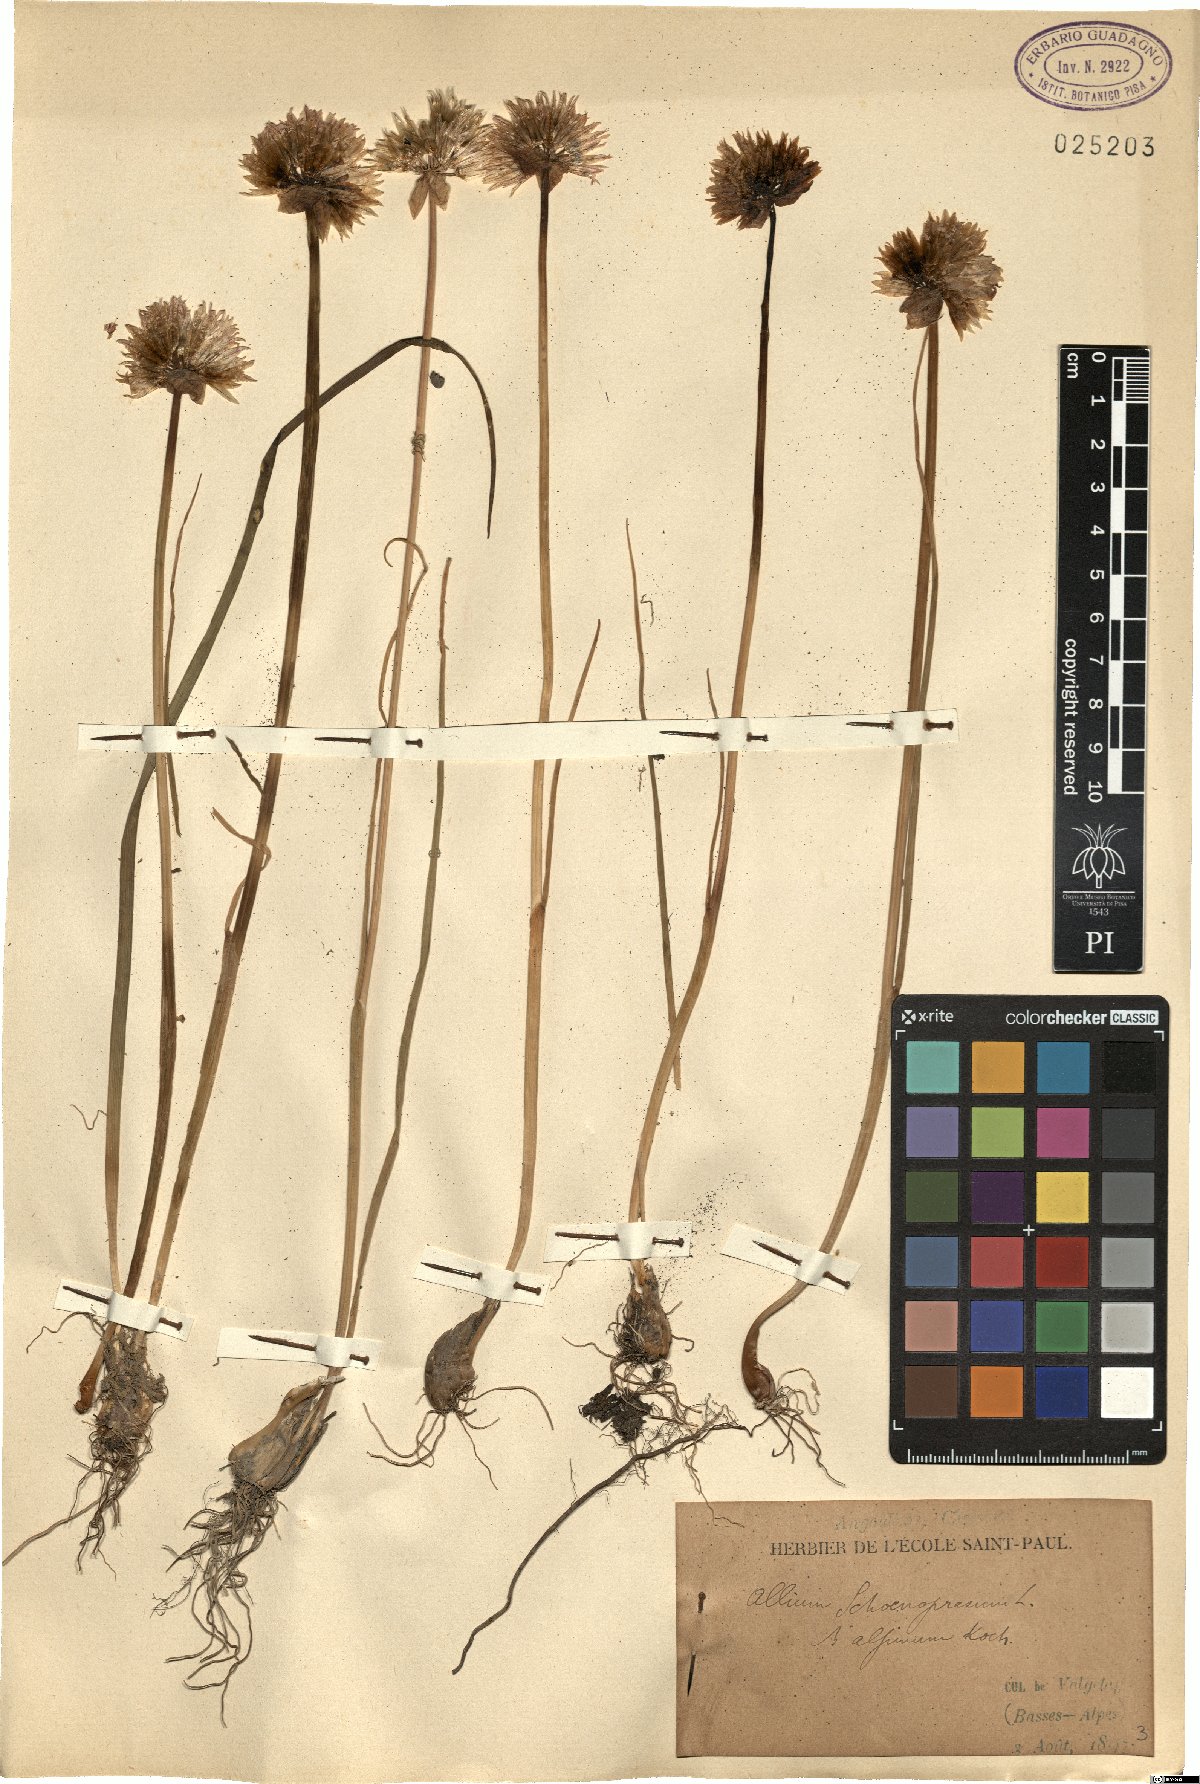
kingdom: Plantae
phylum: Tracheophyta
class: Liliopsida
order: Asparagales
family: Amaryllidaceae
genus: Allium
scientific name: Allium schoenoprasum
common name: Chives
